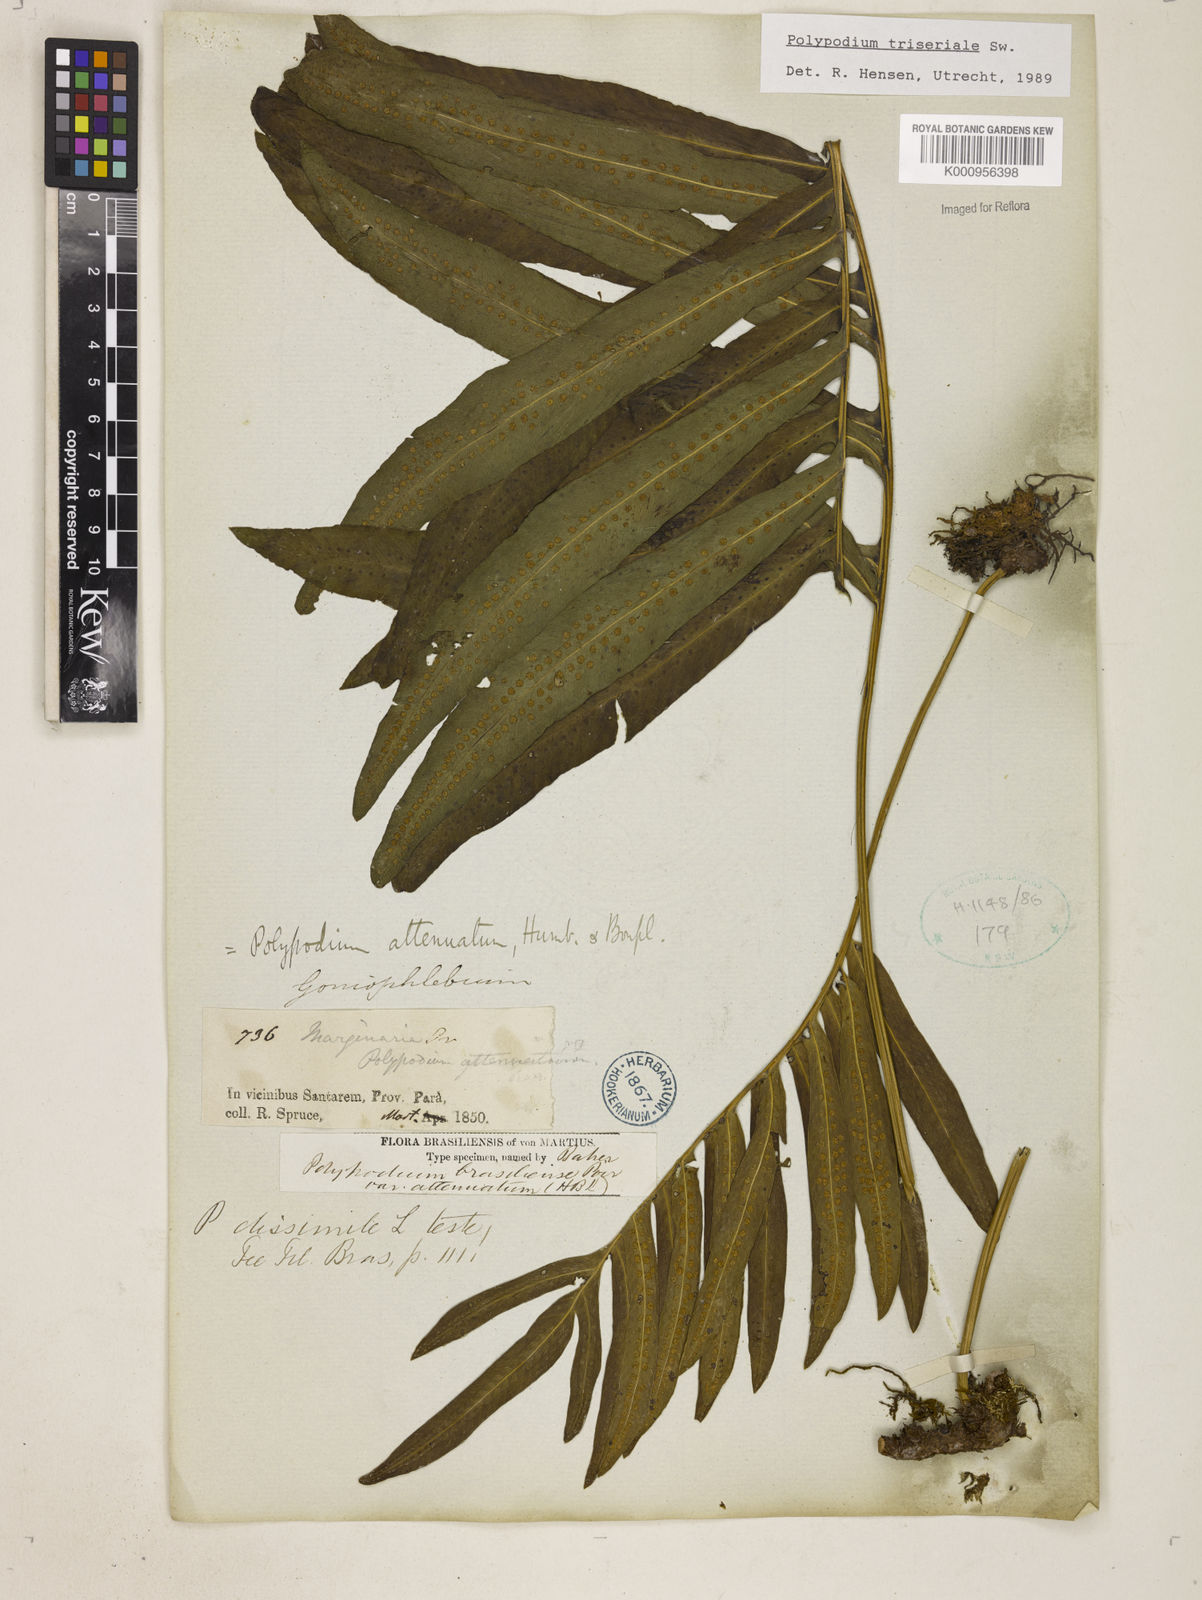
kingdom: Plantae
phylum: Tracheophyta
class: Polypodiopsida
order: Polypodiales
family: Polypodiaceae
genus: Serpocaulon
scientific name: Serpocaulon triseriale
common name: Angle-vein fern
